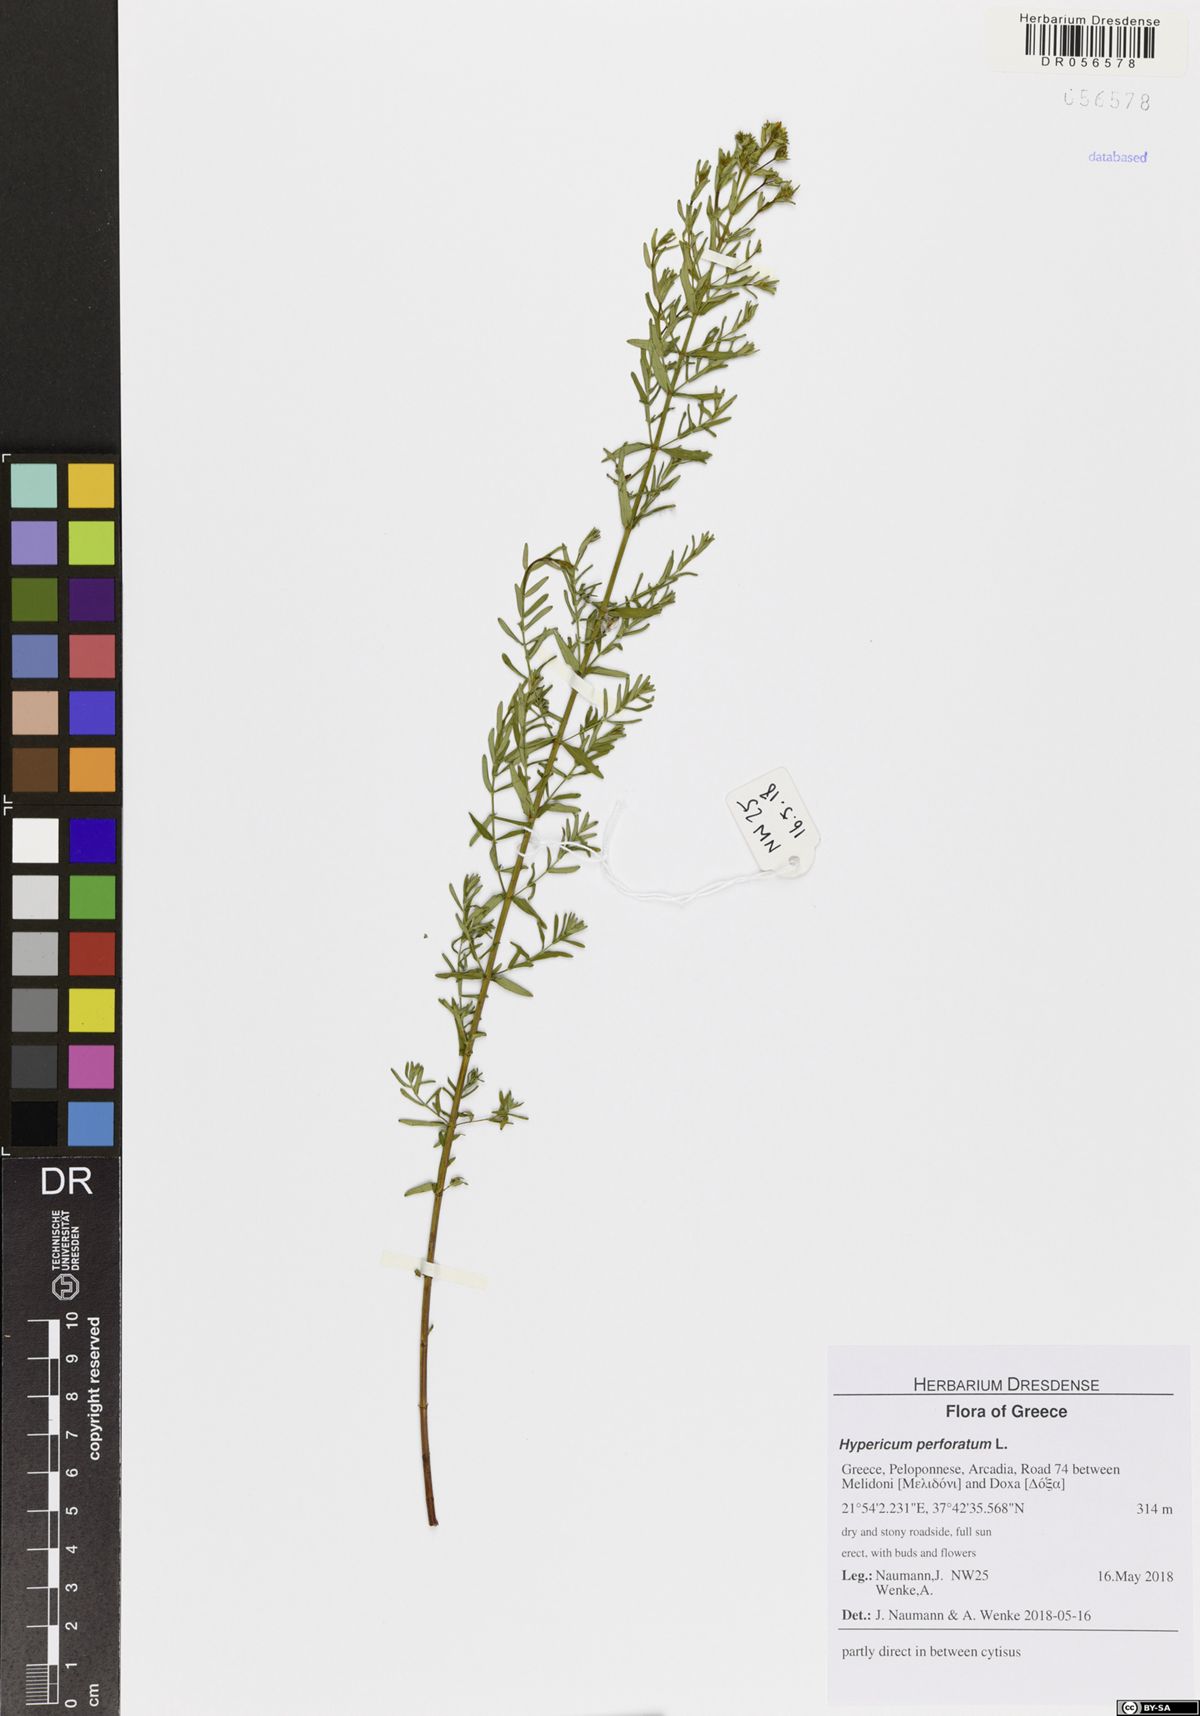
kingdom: Plantae
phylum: Tracheophyta
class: Magnoliopsida
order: Malpighiales
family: Hypericaceae
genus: Hypericum
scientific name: Hypericum perforatum
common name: Common st. johnswort
